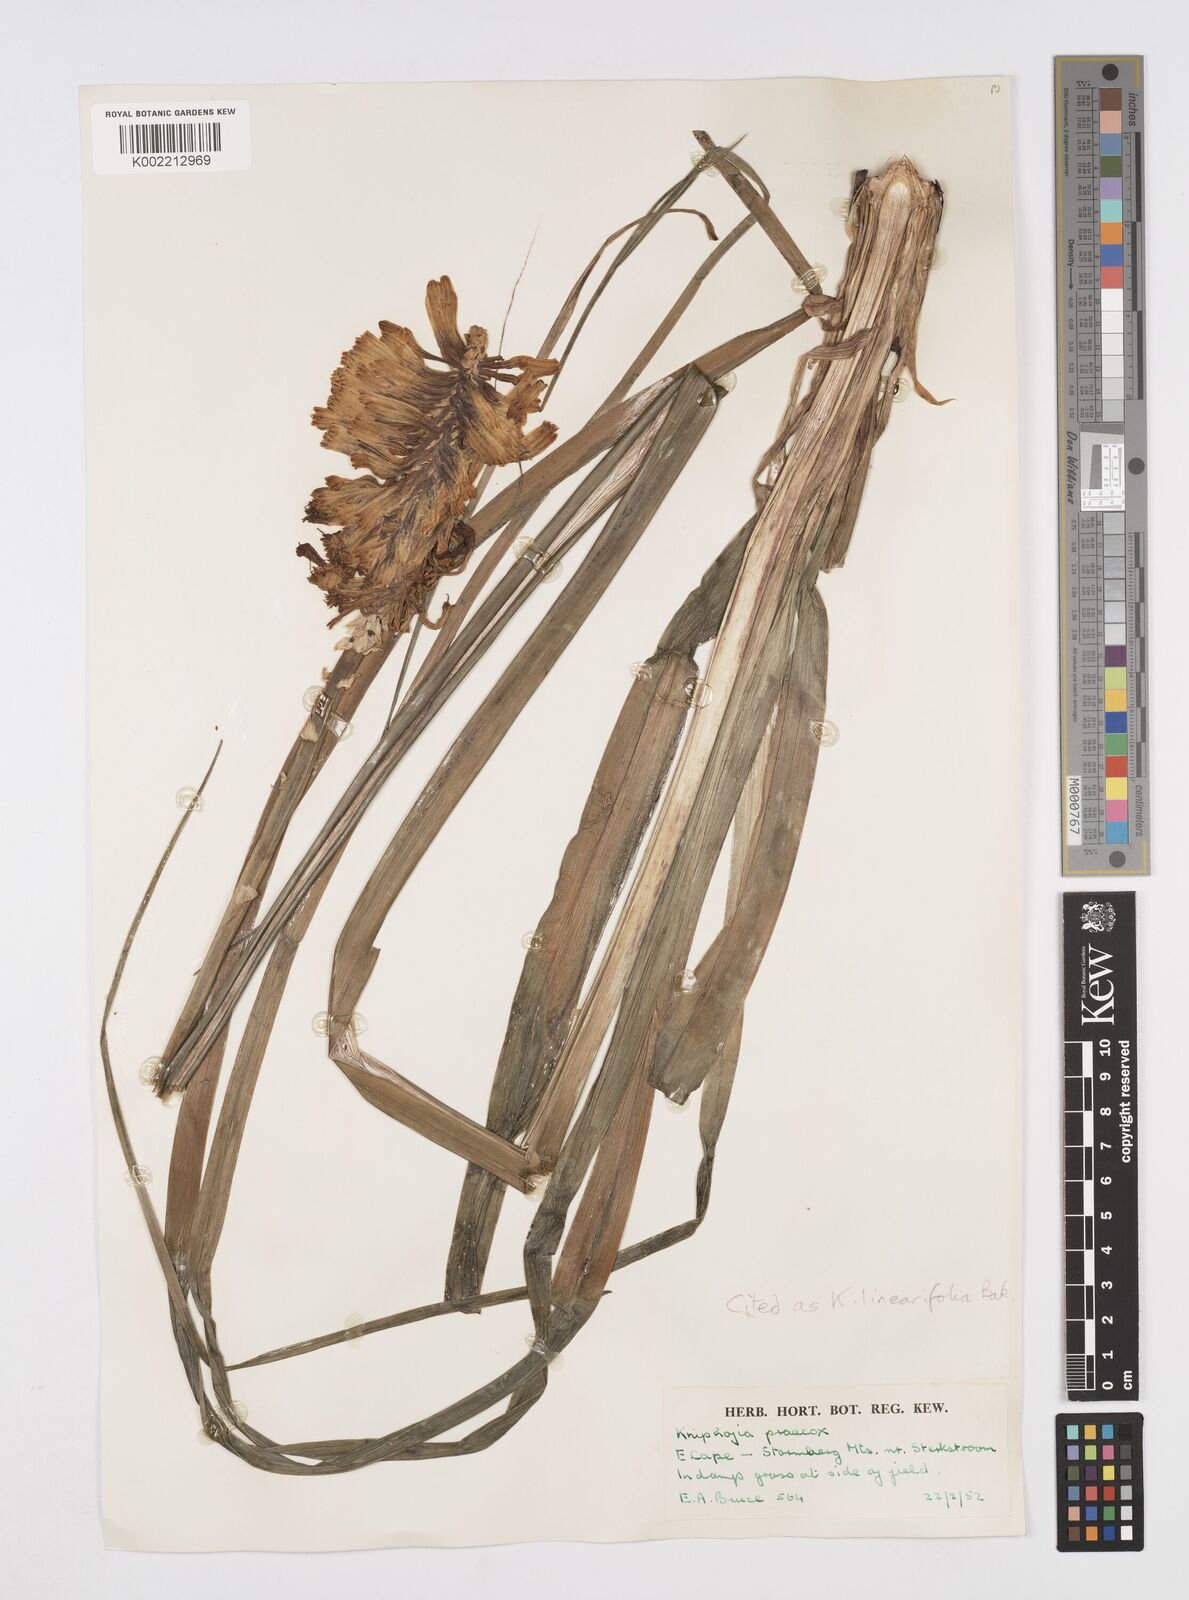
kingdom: Plantae
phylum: Tracheophyta
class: Liliopsida
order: Asparagales
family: Asphodelaceae
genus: Kniphofia
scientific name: Kniphofia linearifolia
